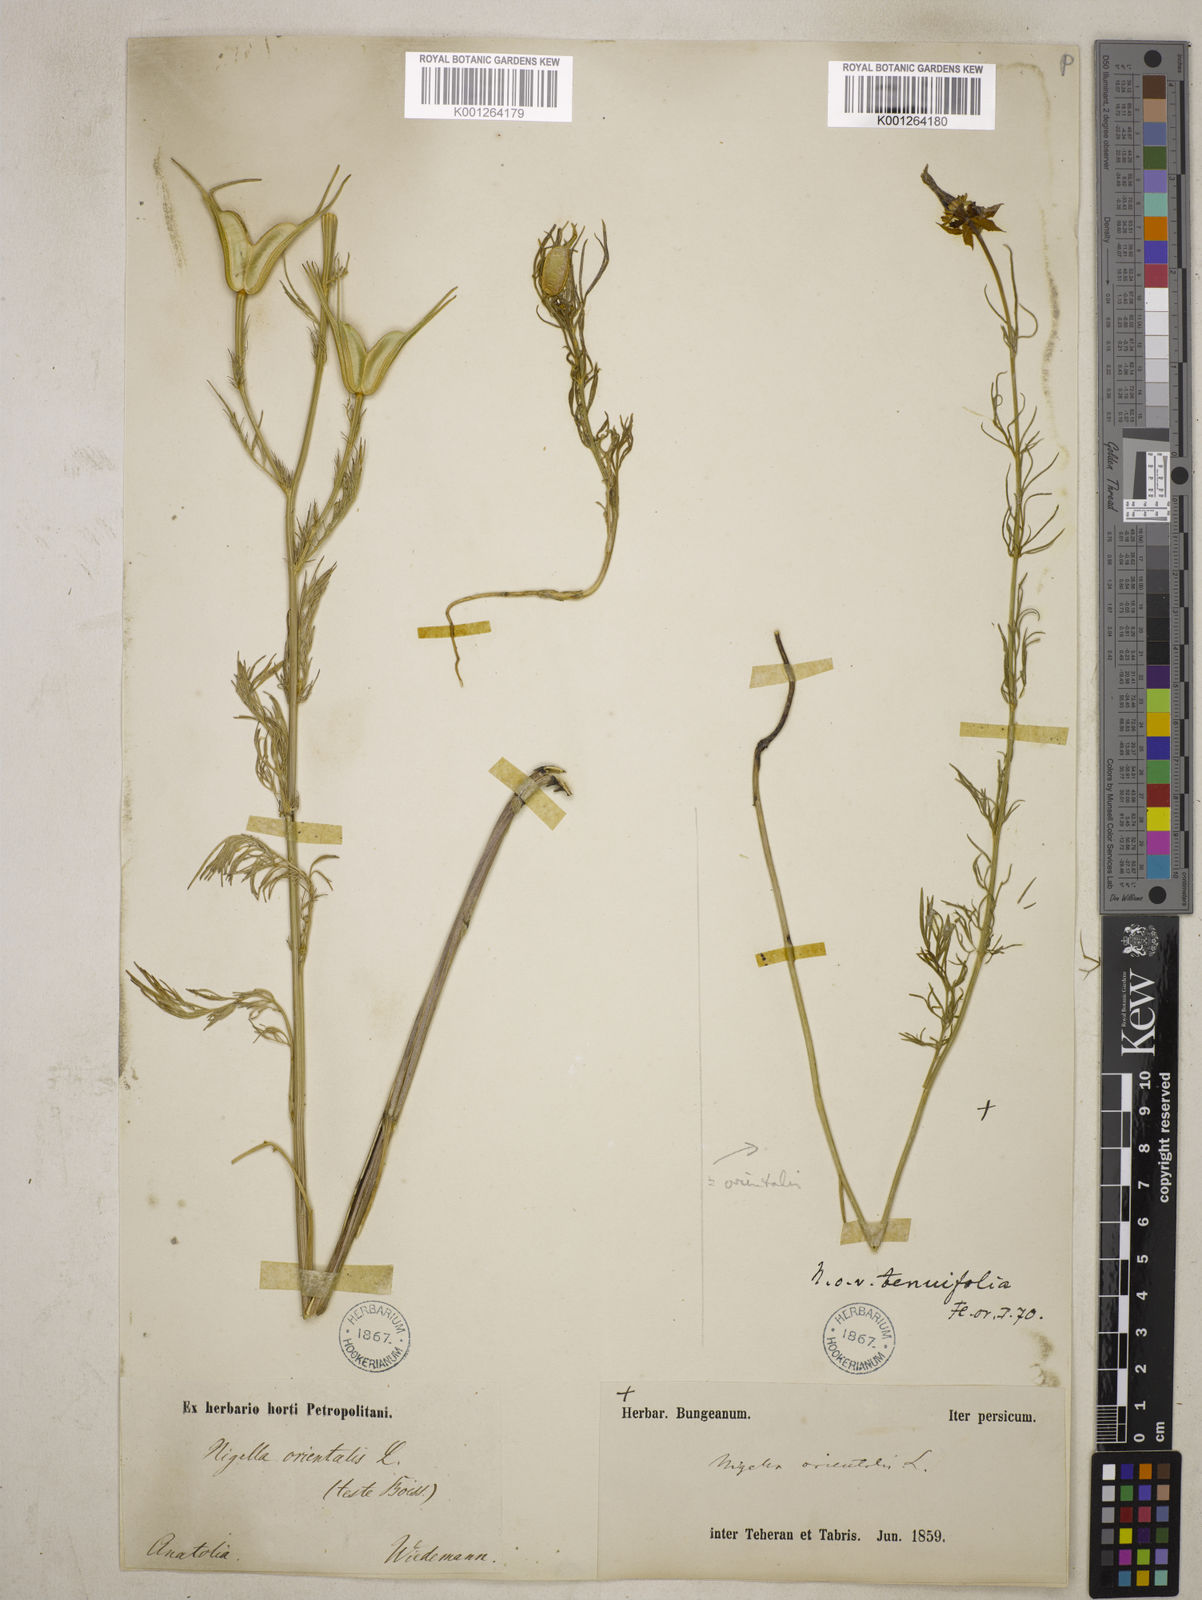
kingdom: Plantae
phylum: Tracheophyta
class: Magnoliopsida
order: Ranunculales
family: Ranunculaceae
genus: Nigella
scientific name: Nigella orientalis
